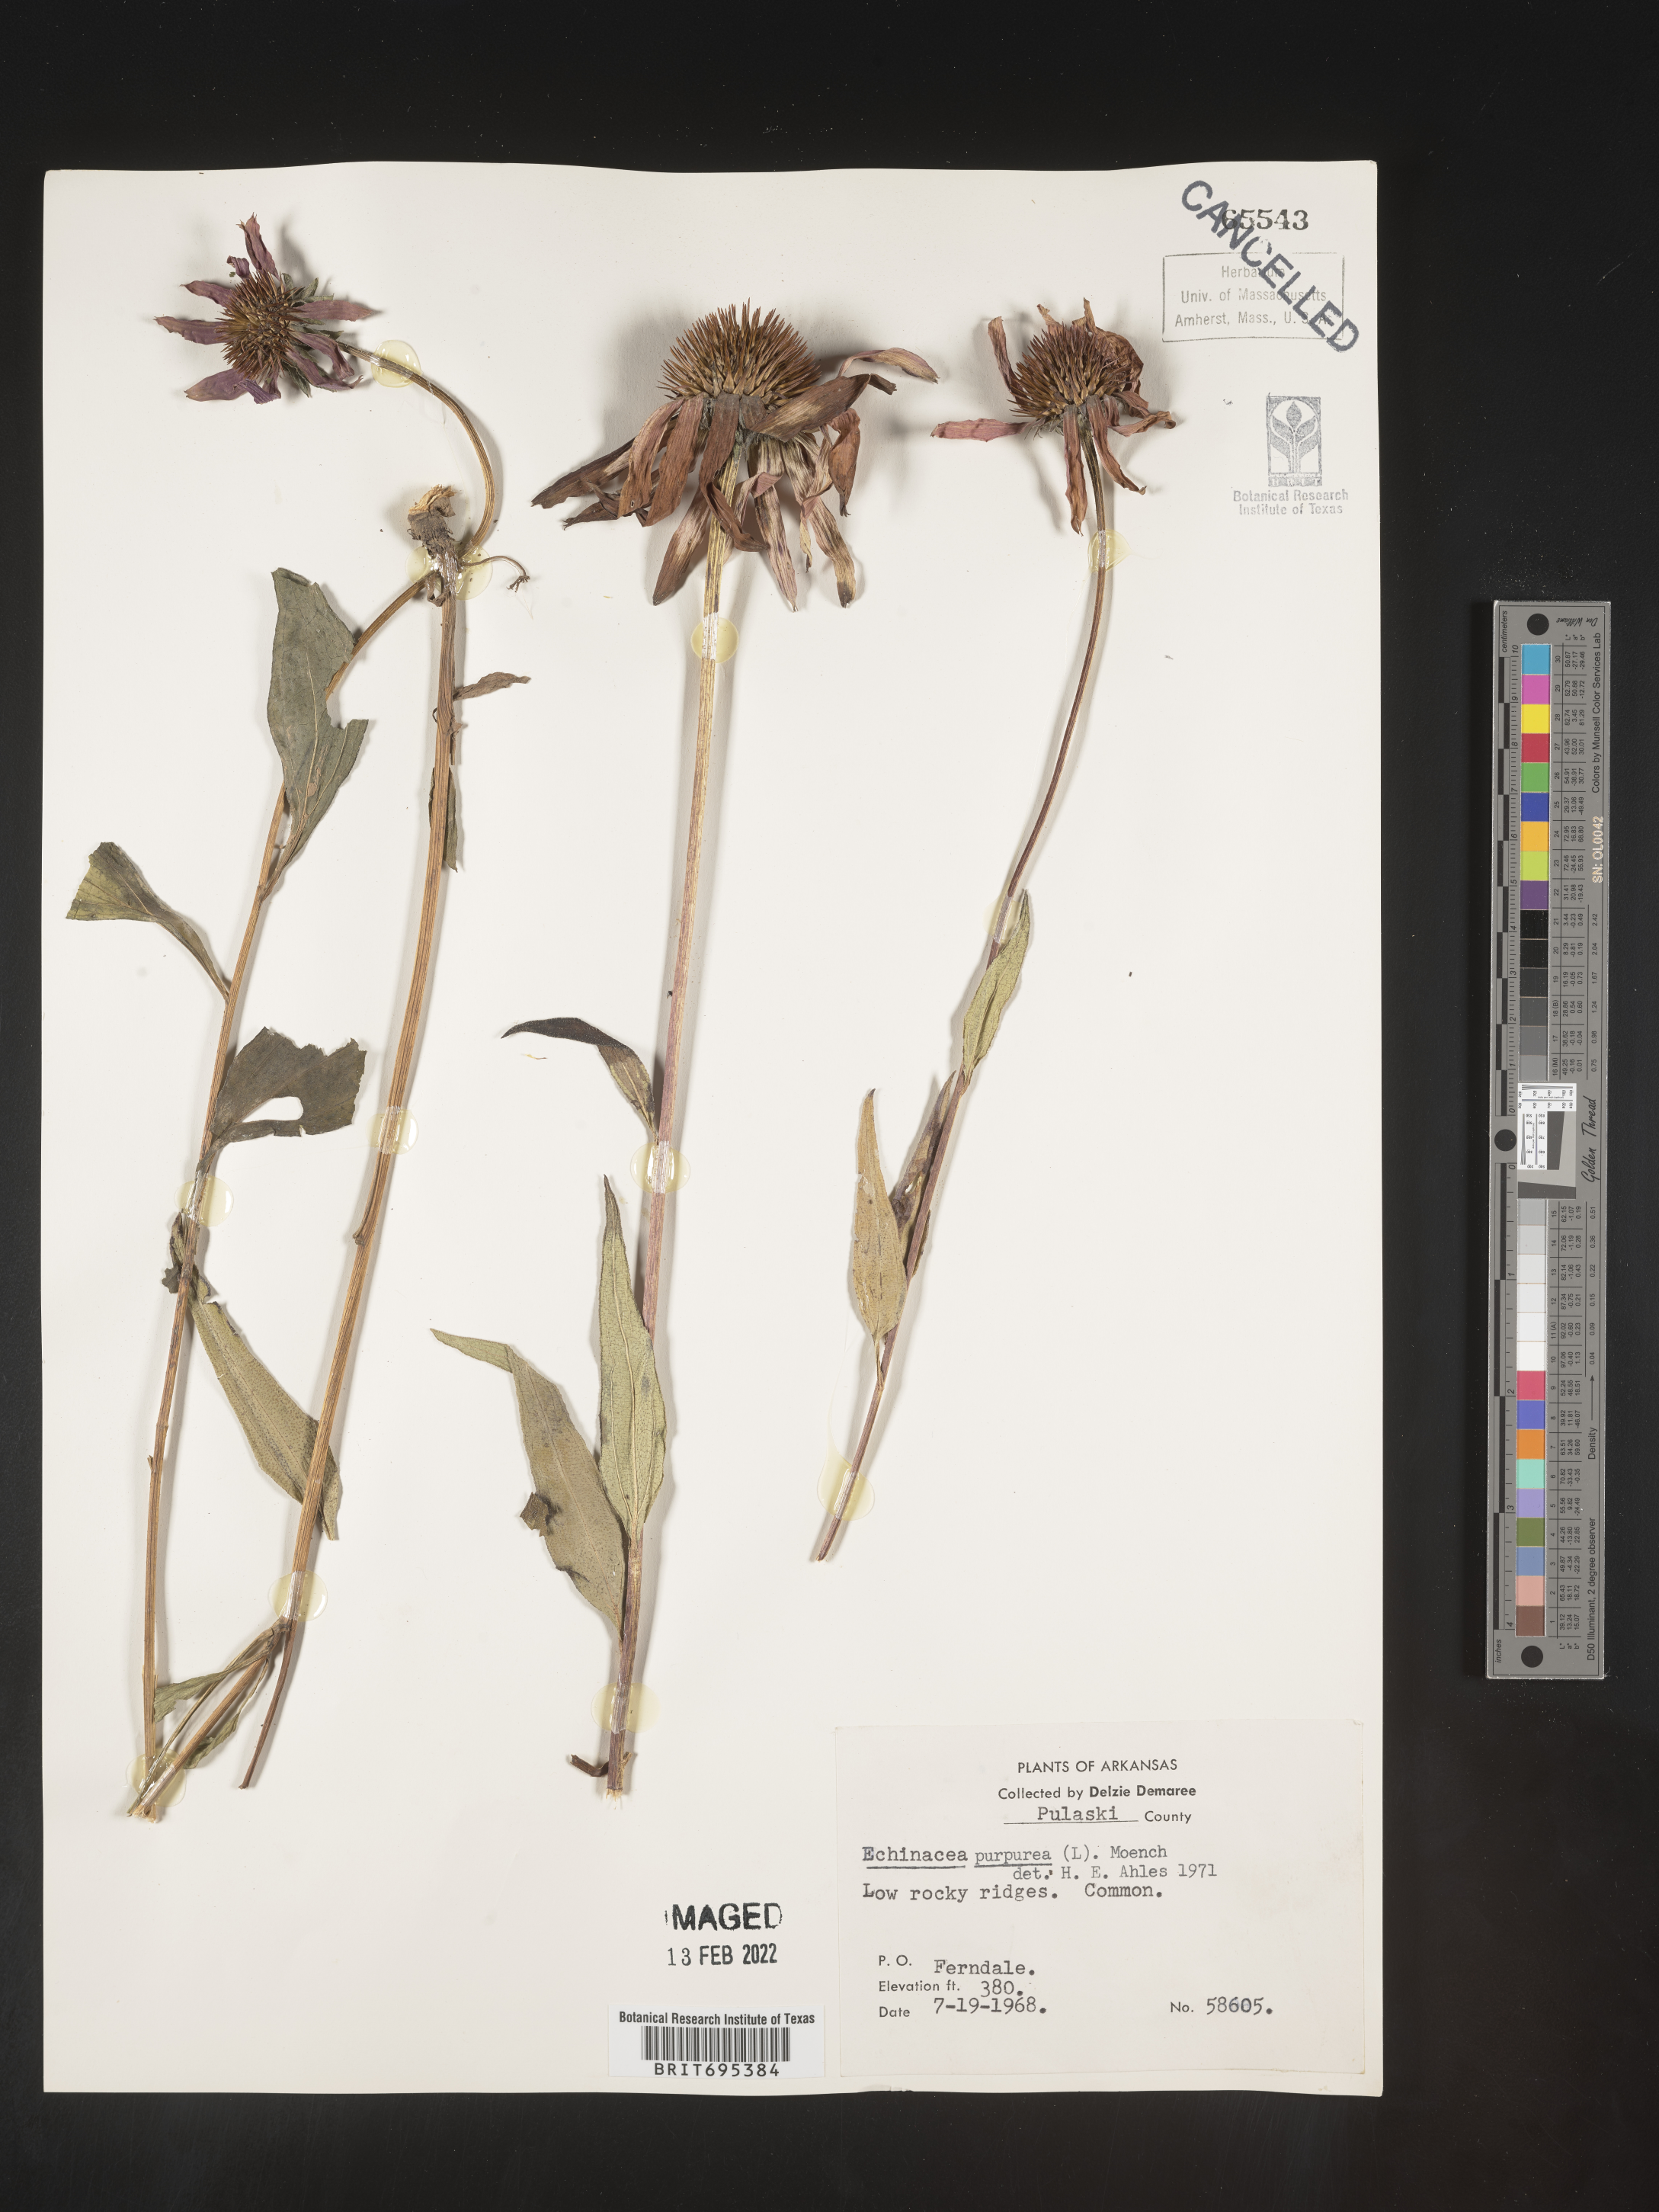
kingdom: Plantae
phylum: Tracheophyta
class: Magnoliopsida
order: Asterales
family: Asteraceae
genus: Echinacea
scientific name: Echinacea purpurea
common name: Broad-leaved purple coneflower
